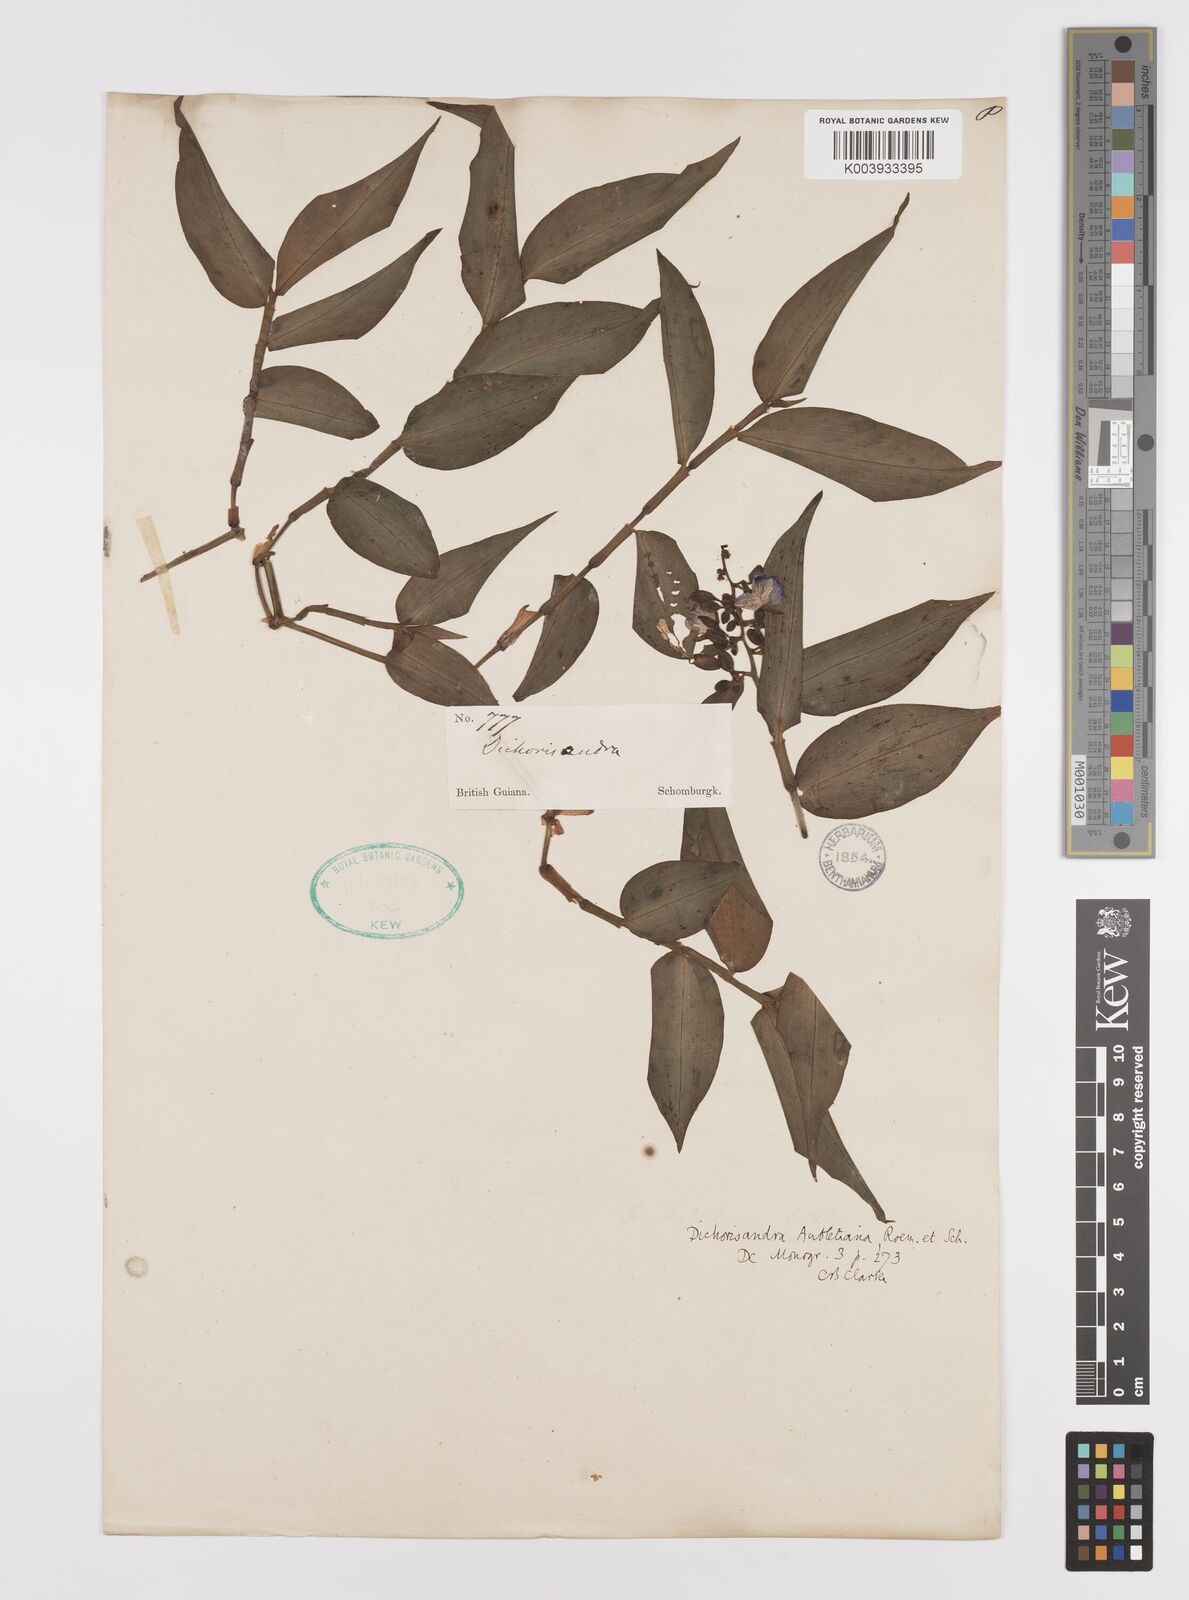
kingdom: Plantae
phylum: Tracheophyta
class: Liliopsida
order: Commelinales
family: Commelinaceae
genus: Dichorisandra
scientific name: Dichorisandra
